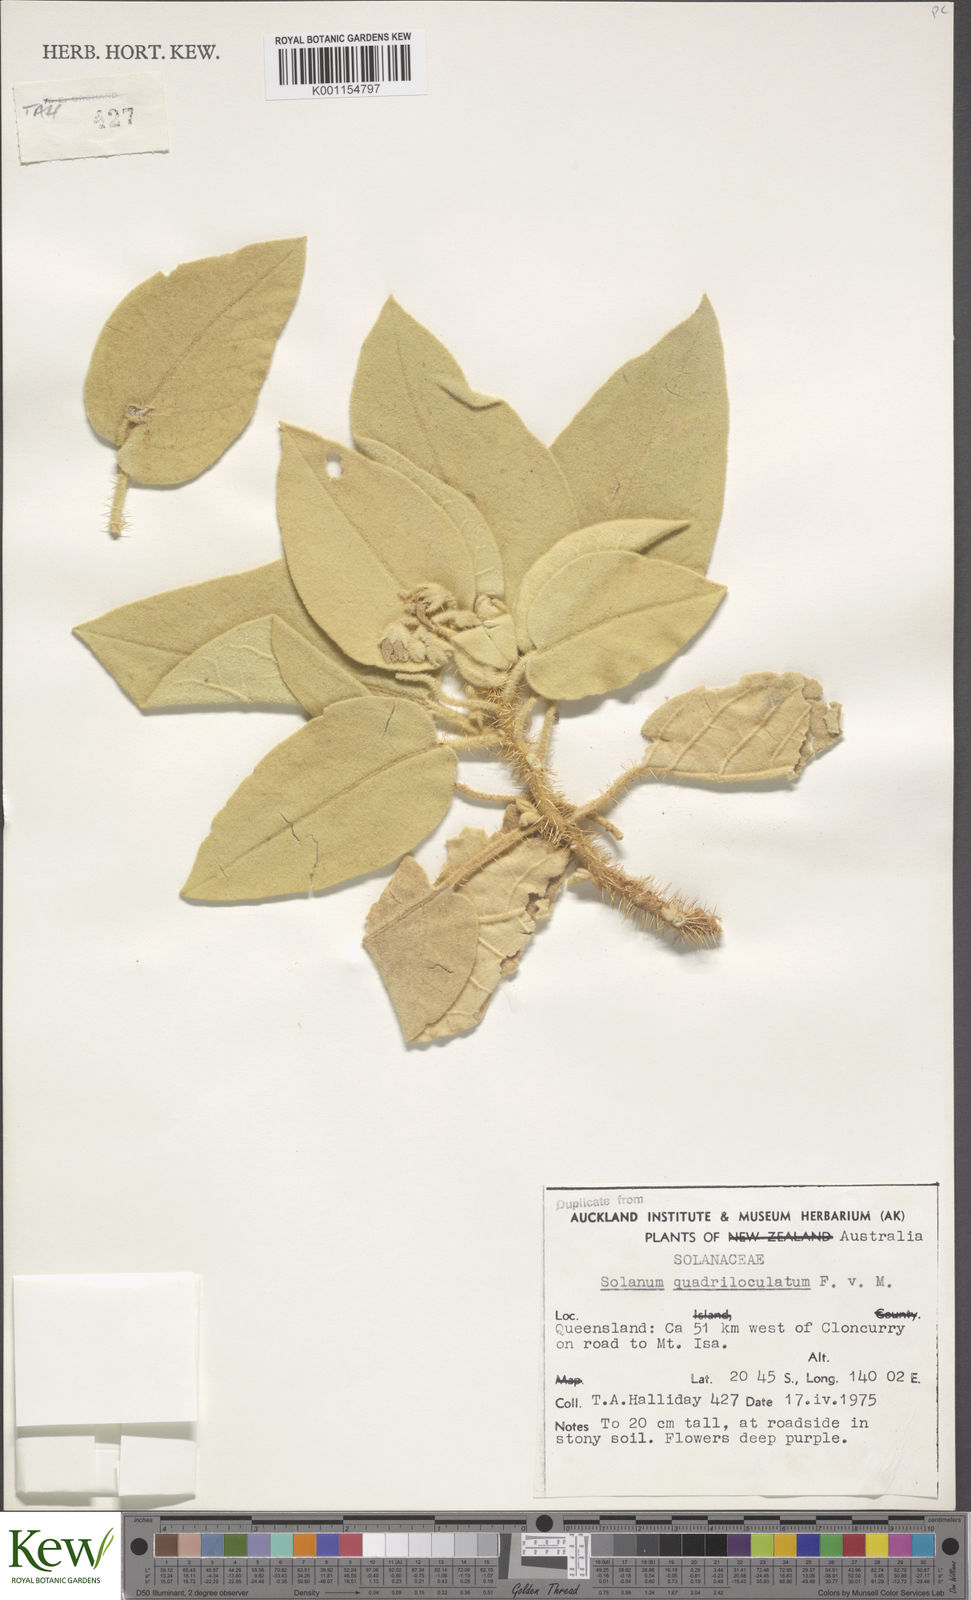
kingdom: Plantae
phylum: Tracheophyta
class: Magnoliopsida
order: Solanales
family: Solanaceae
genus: Solanum
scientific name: Solanum quadriloculatum
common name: Wild tomato
